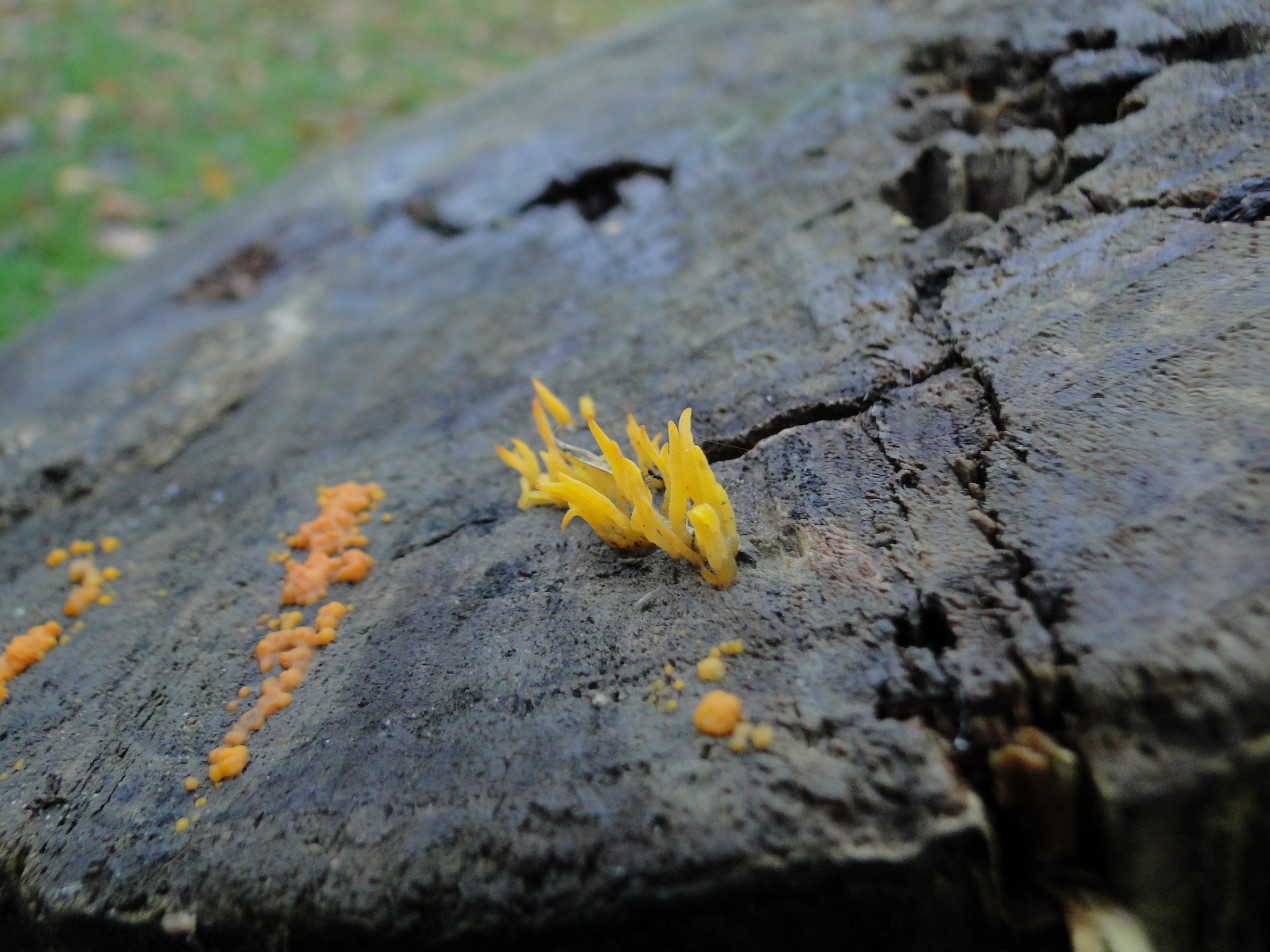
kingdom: Fungi
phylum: Basidiomycota
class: Dacrymycetes
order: Dacrymycetales
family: Dacrymycetaceae
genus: Calocera
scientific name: Calocera cornea
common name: liden guldgaffel
